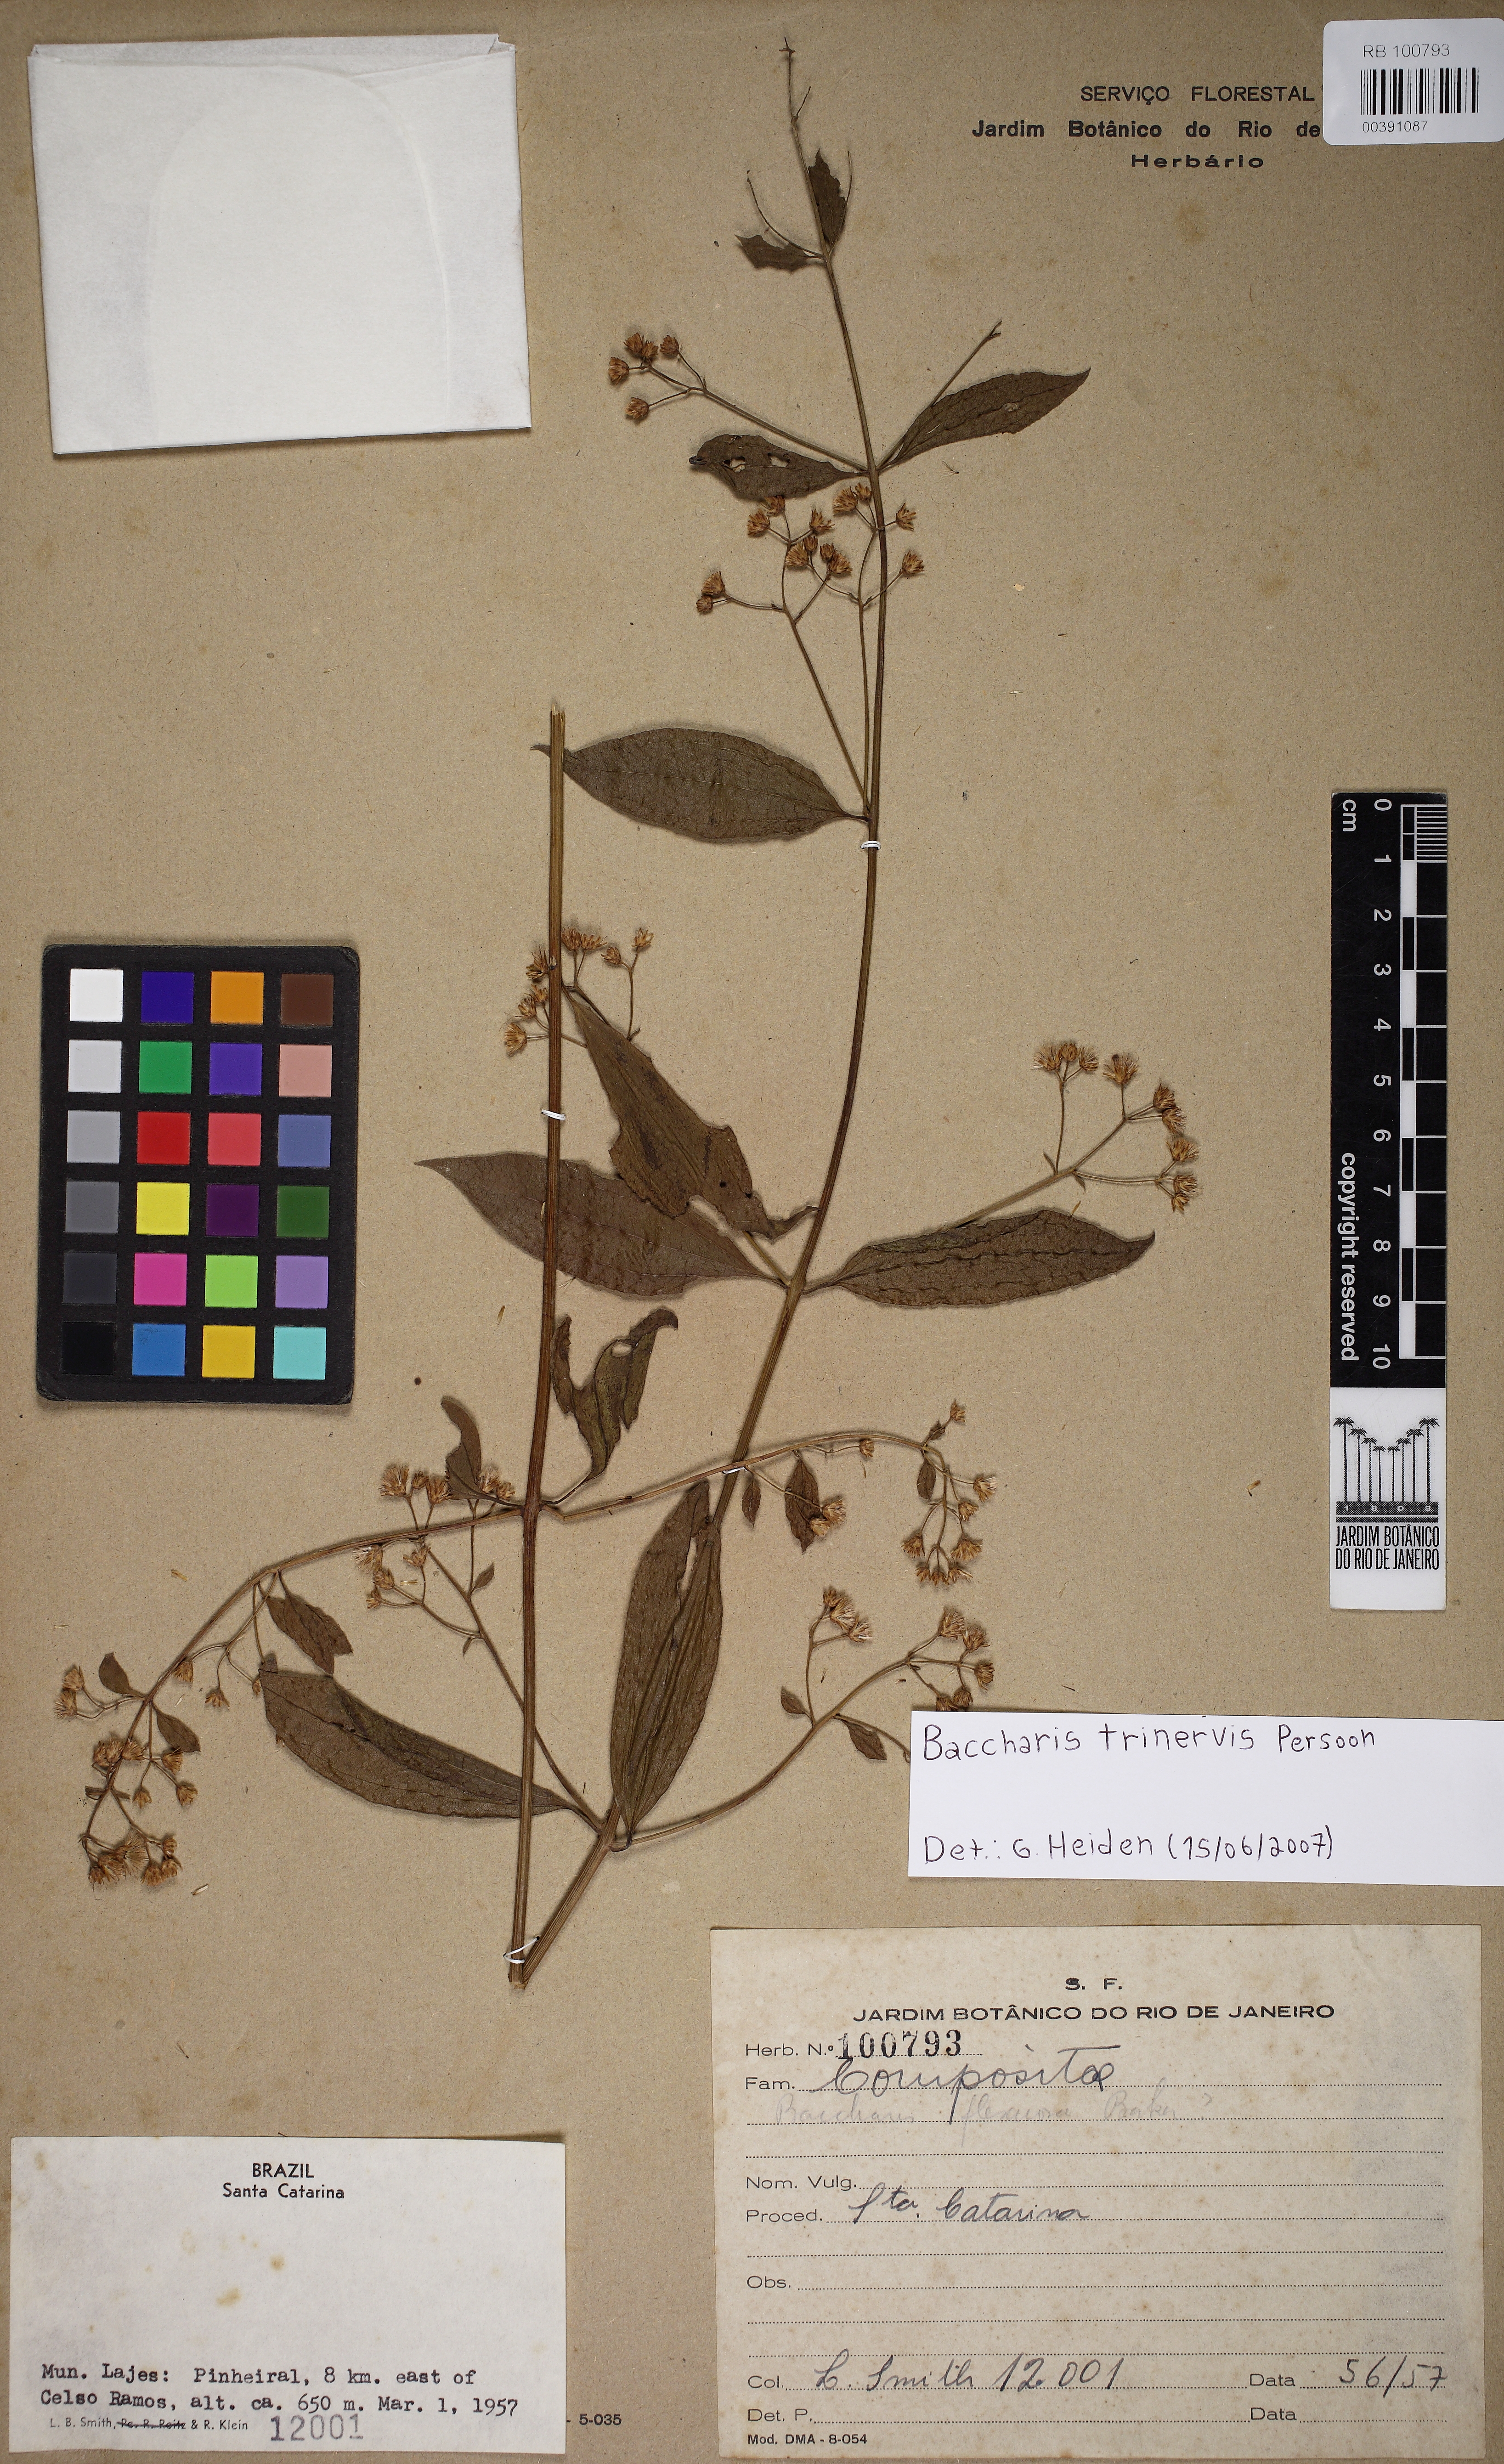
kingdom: Plantae
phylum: Tracheophyta
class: Magnoliopsida
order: Asterales
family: Asteraceae
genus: Baccharis
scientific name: Baccharis trinervis
